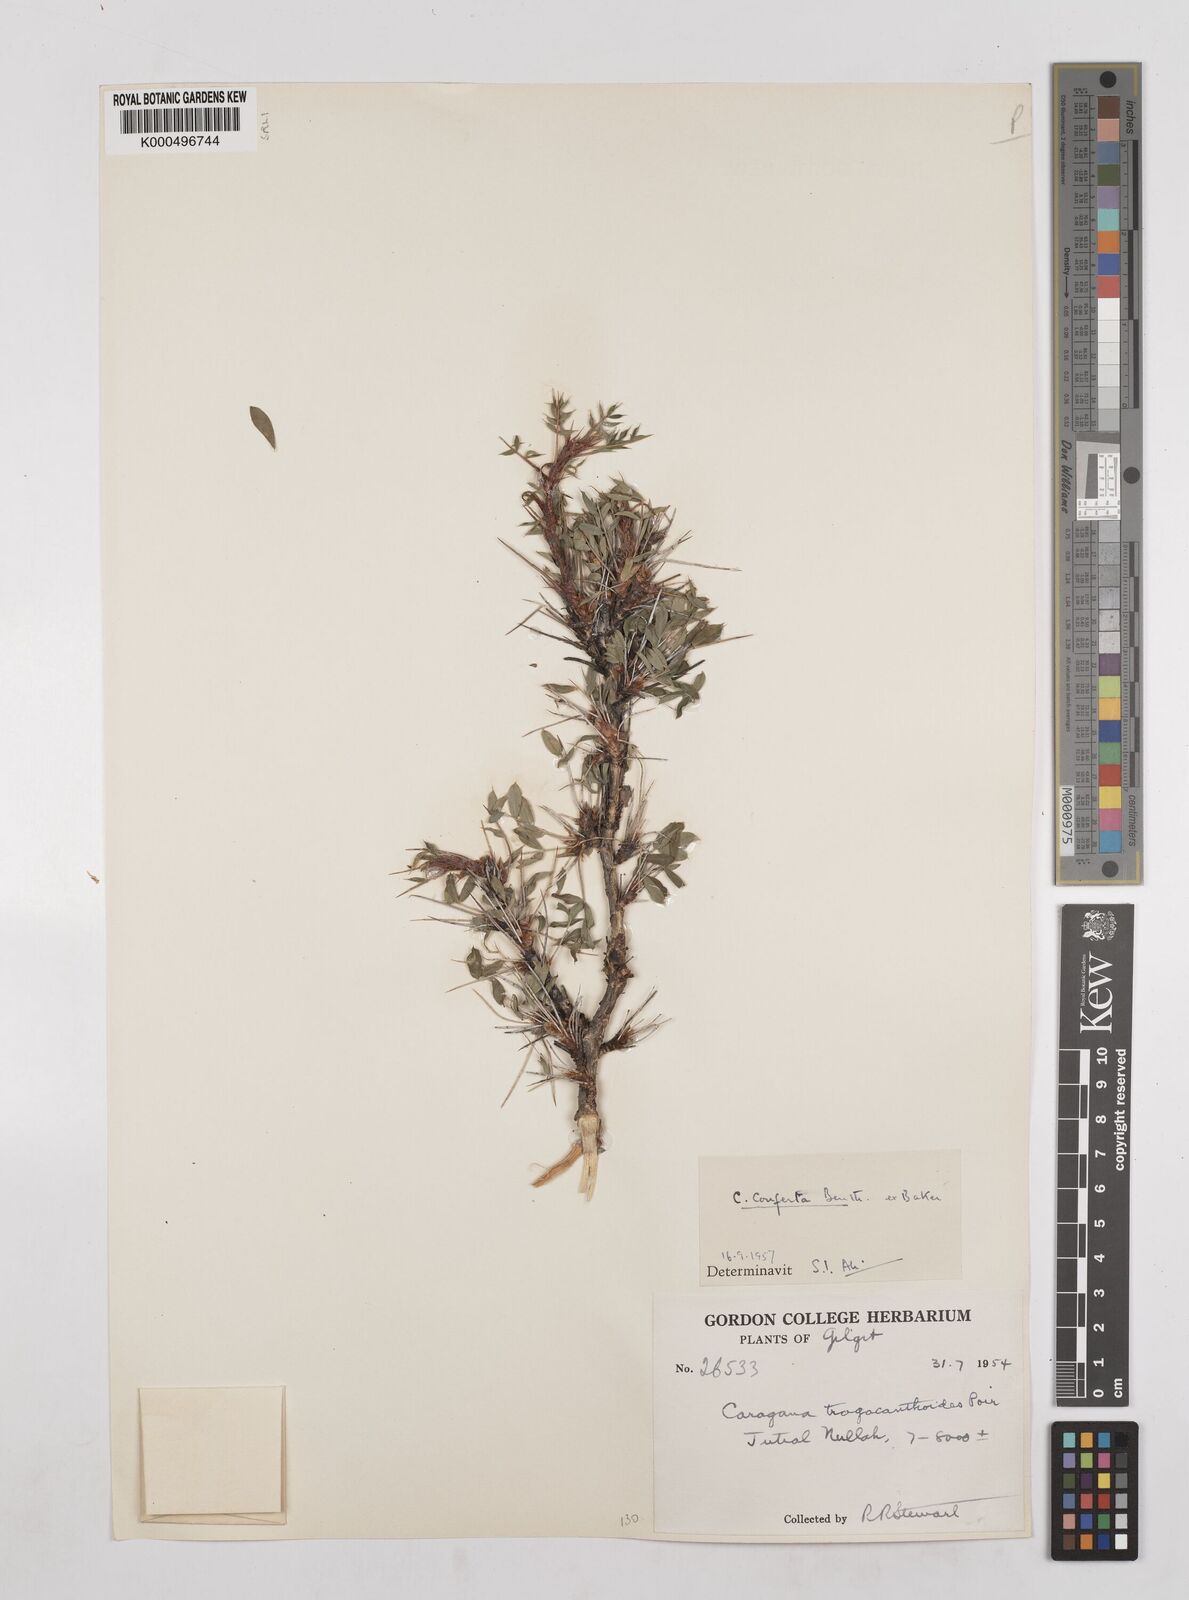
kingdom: Plantae
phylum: Tracheophyta
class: Magnoliopsida
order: Fabales
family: Fabaceae
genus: Caragana
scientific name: Caragana conferta
